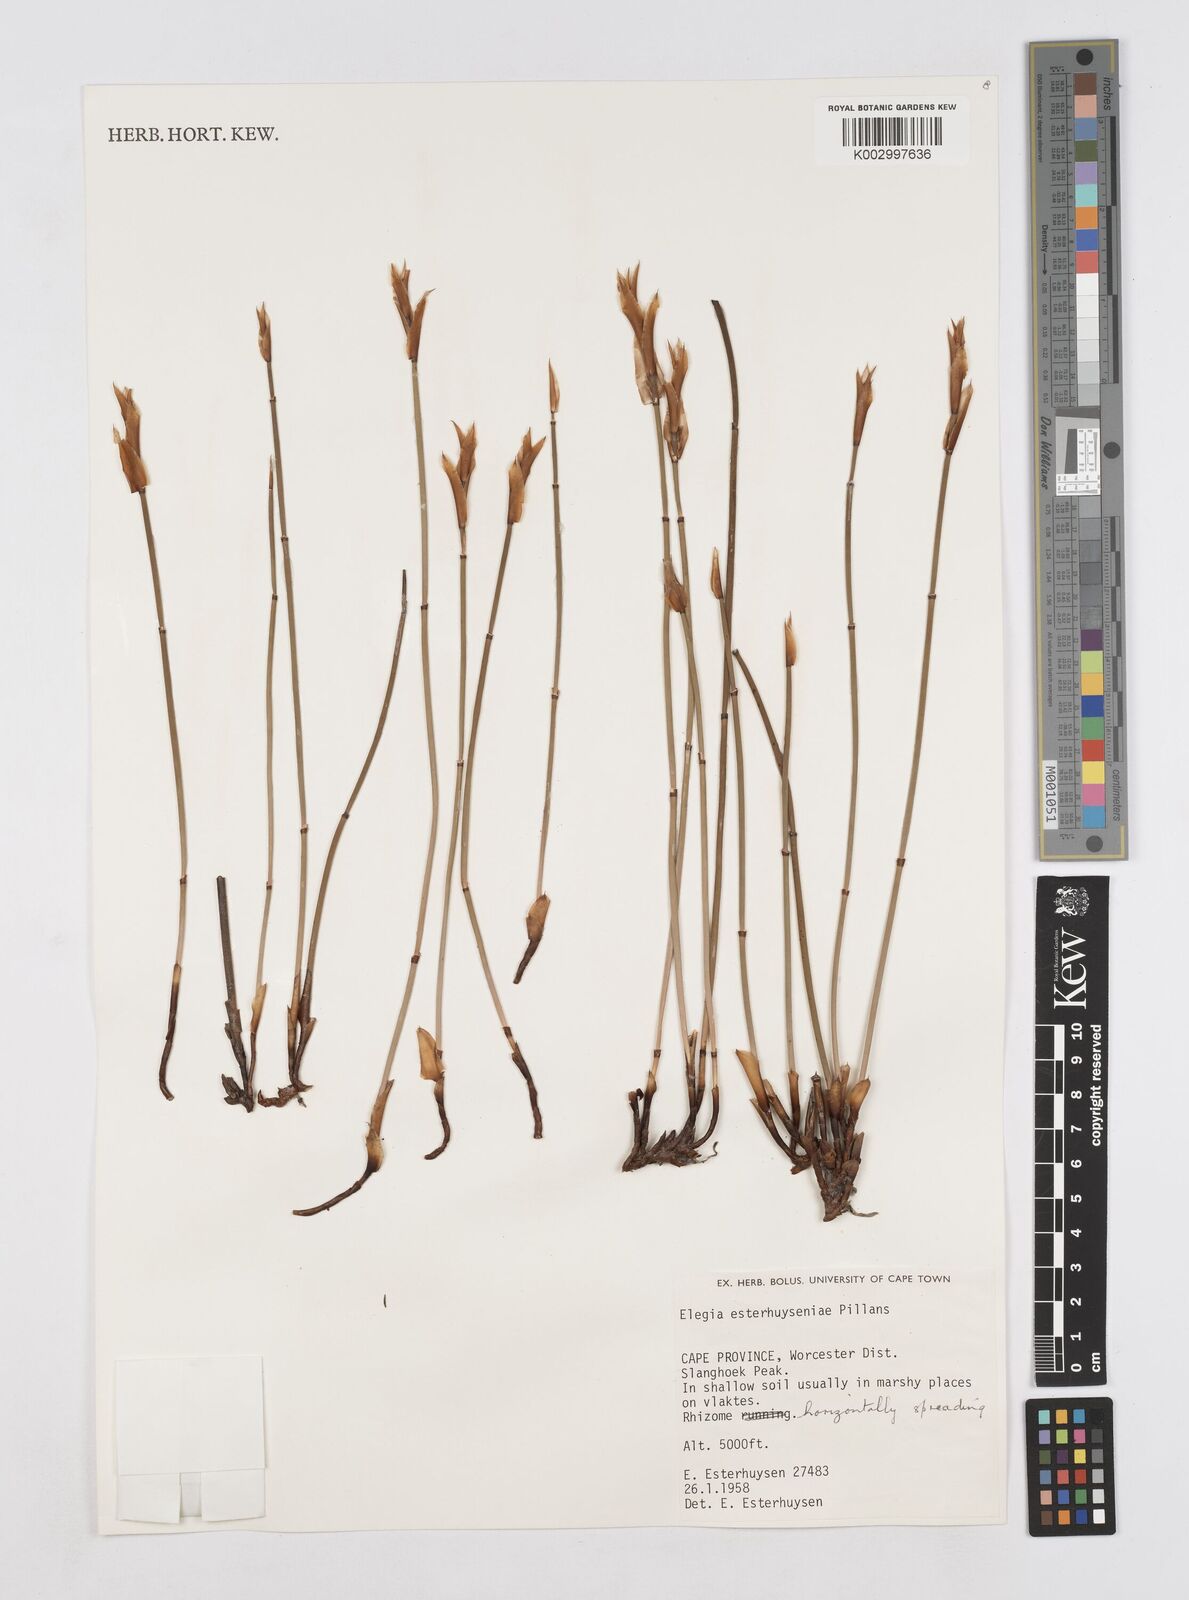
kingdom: Plantae
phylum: Tracheophyta
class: Liliopsida
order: Poales
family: Restionaceae
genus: Elegia
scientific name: Elegia esterhuyseniae
